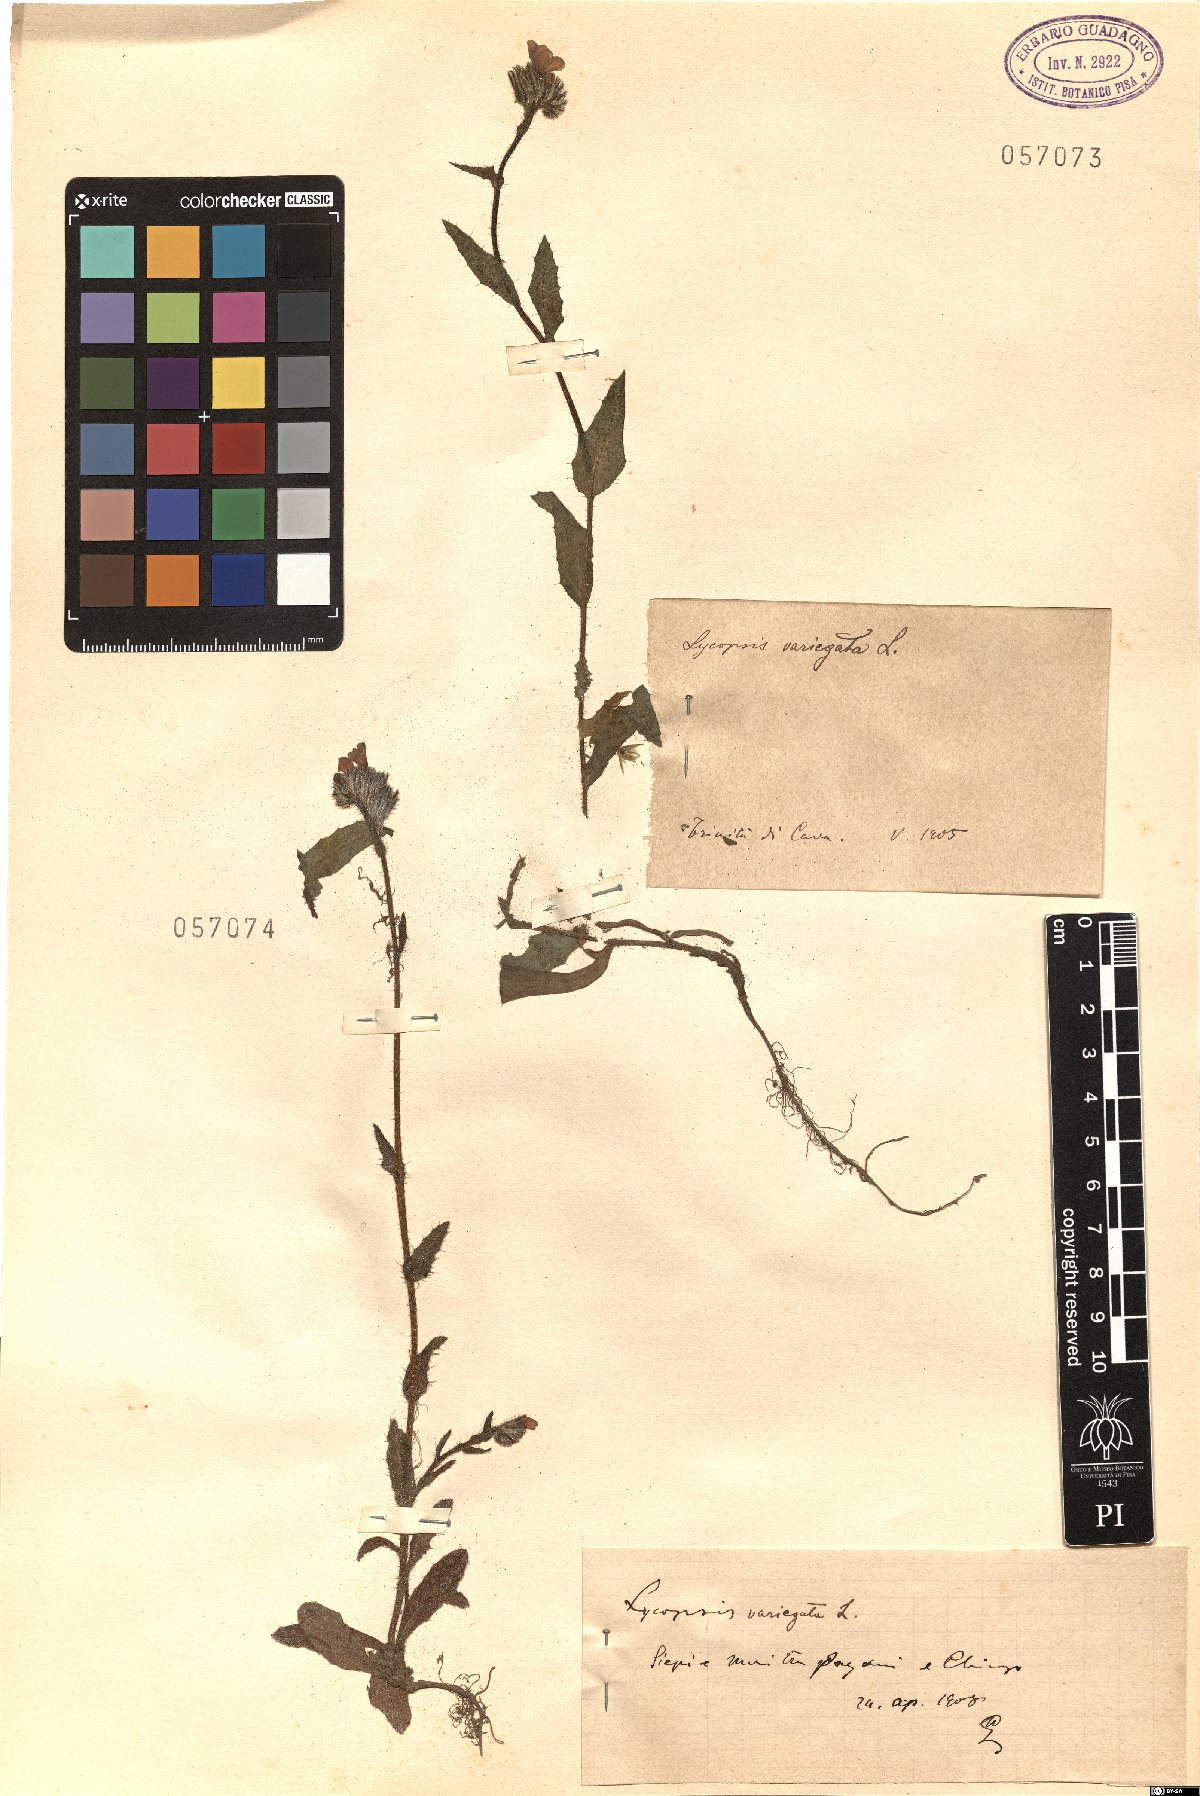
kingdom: Plantae
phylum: Tracheophyta
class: Magnoliopsida
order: Boraginales
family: Boraginaceae
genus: Anchusella
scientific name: Anchusella variegata
